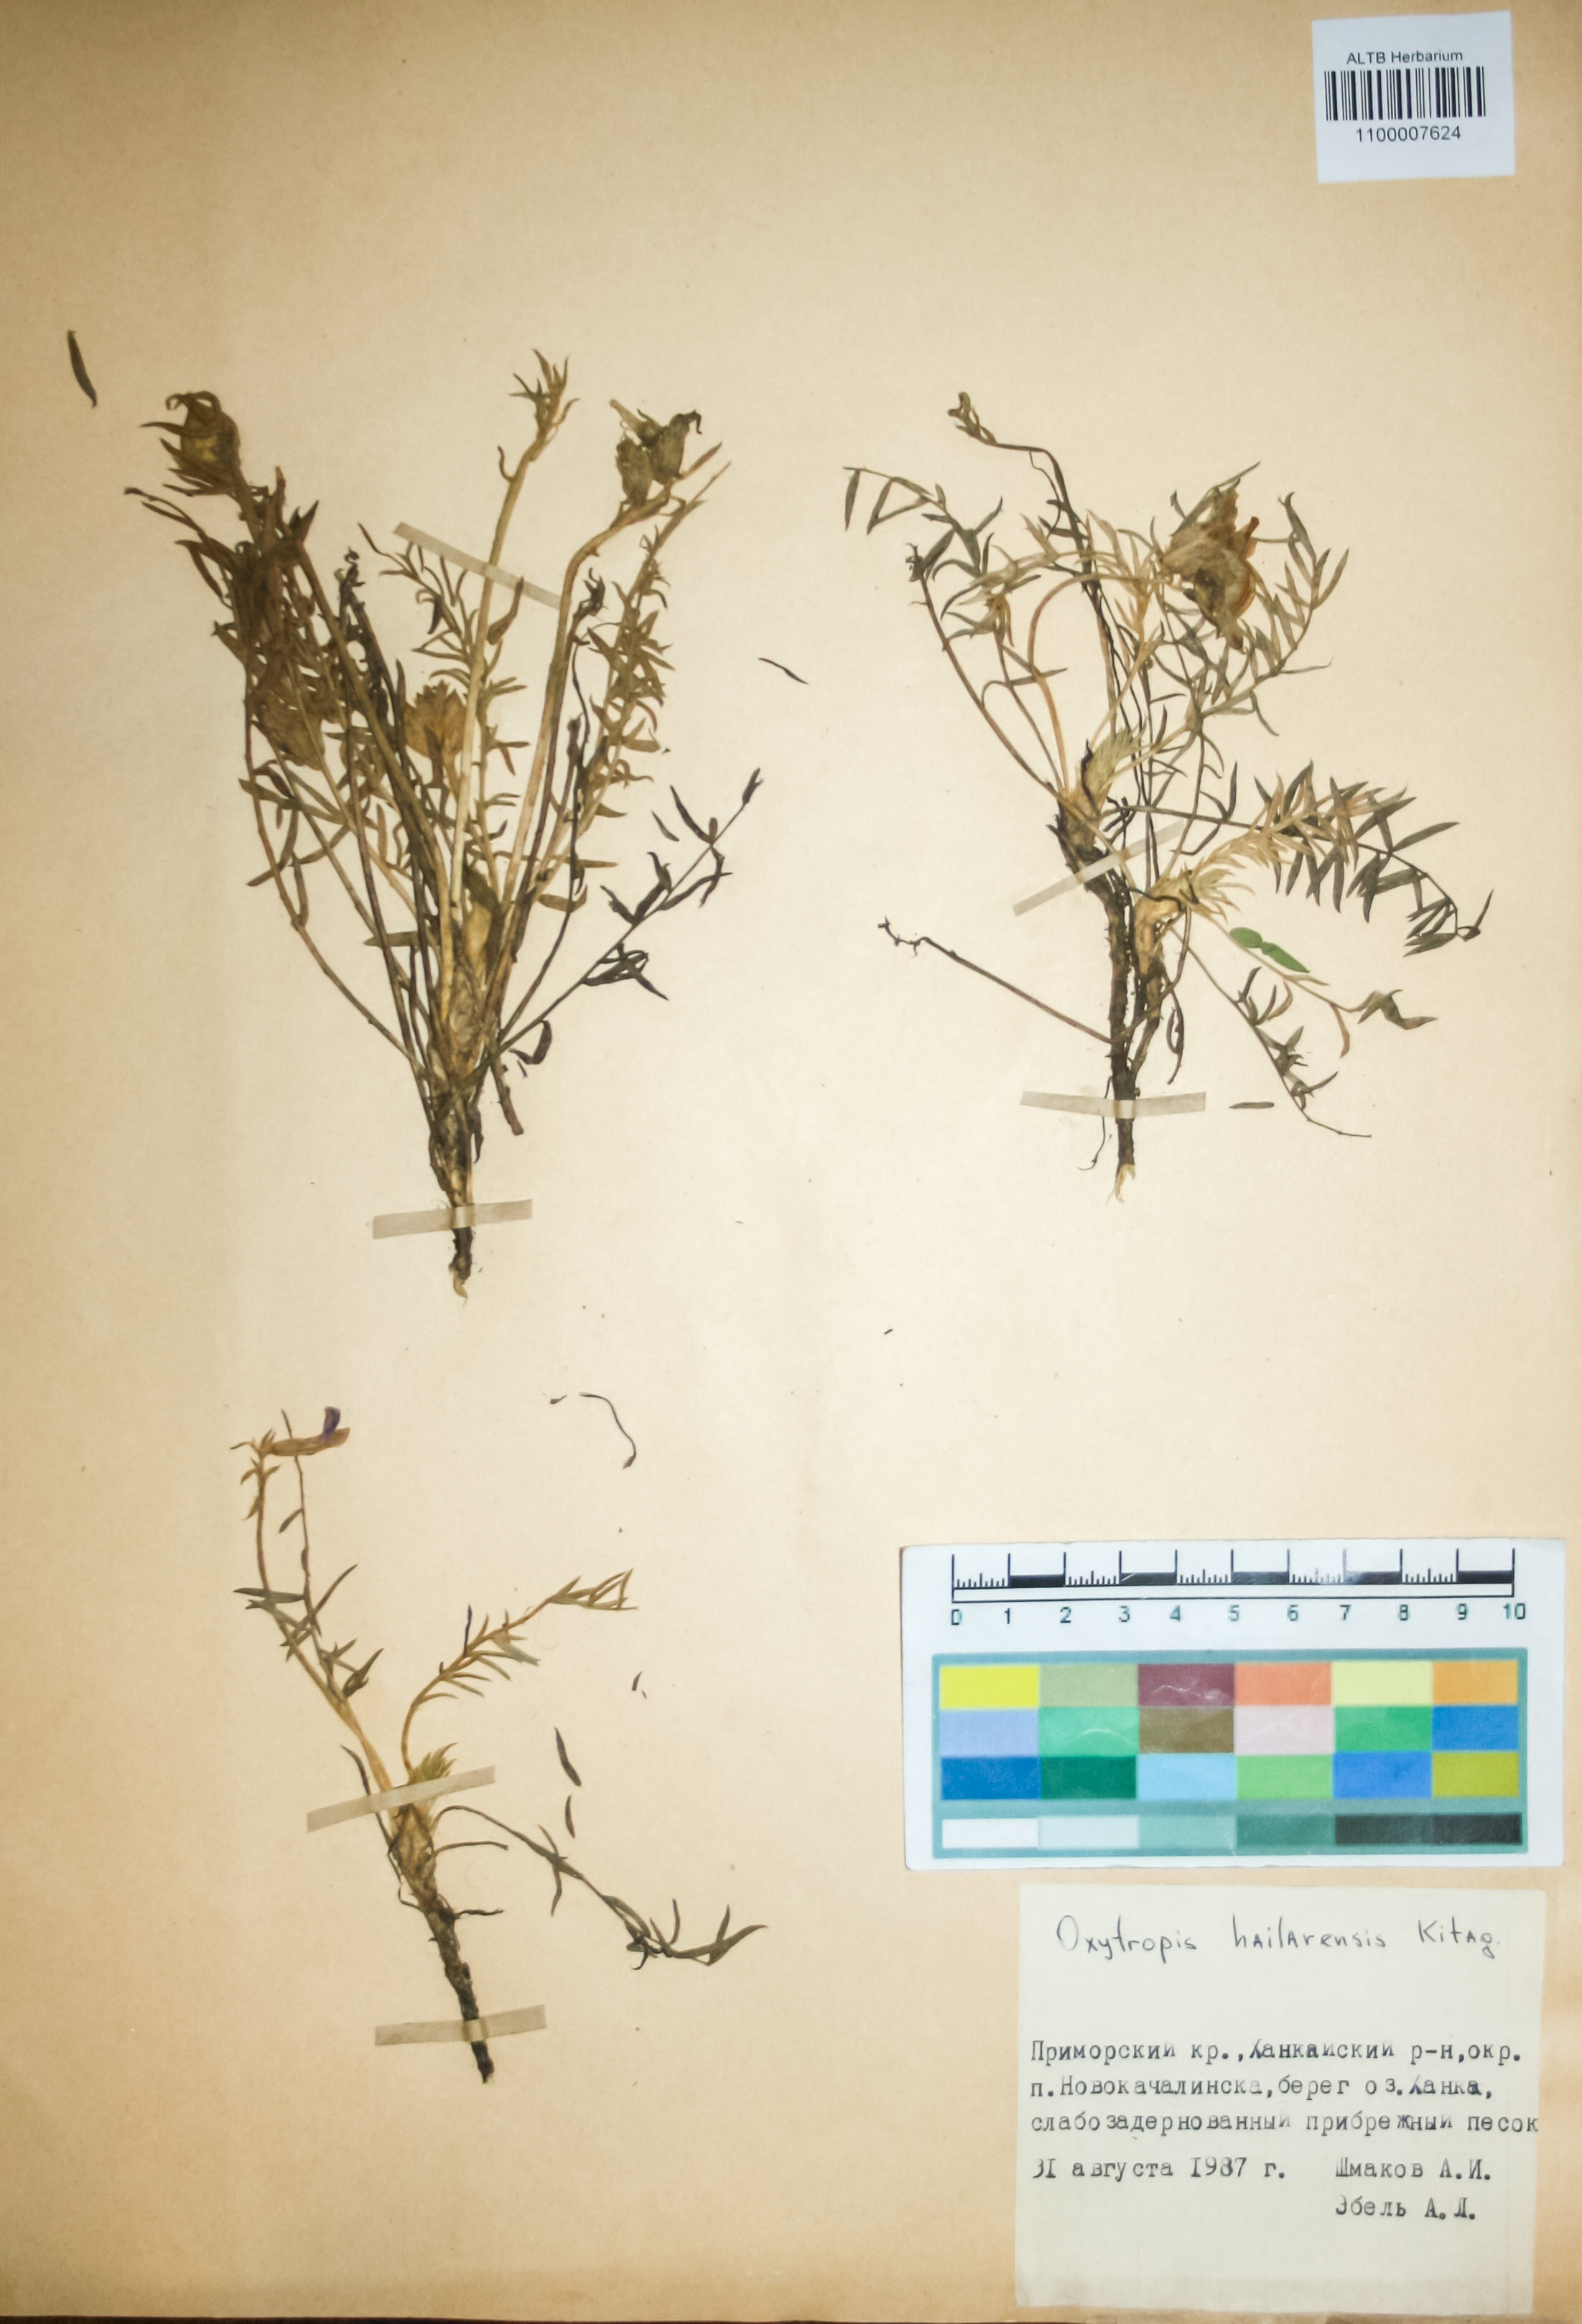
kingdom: Plantae
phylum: Tracheophyta
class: Magnoliopsida
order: Fabales
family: Fabaceae
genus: Oxytropis
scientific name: Oxytropis hailarensis
